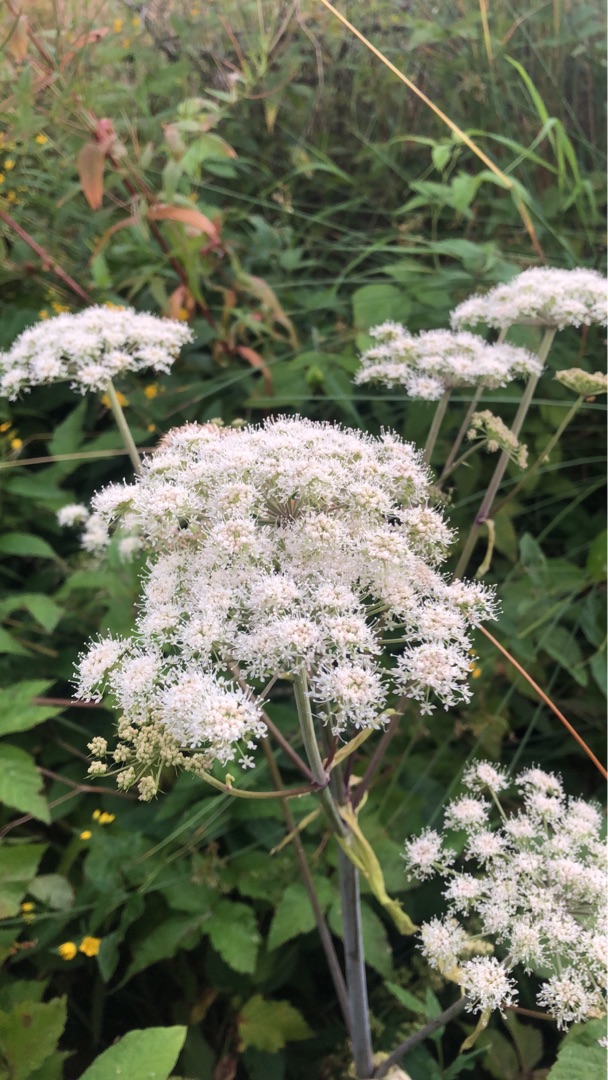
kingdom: Plantae
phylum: Tracheophyta
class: Magnoliopsida
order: Apiales
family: Apiaceae
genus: Angelica
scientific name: Angelica sylvestris
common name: Angelik
